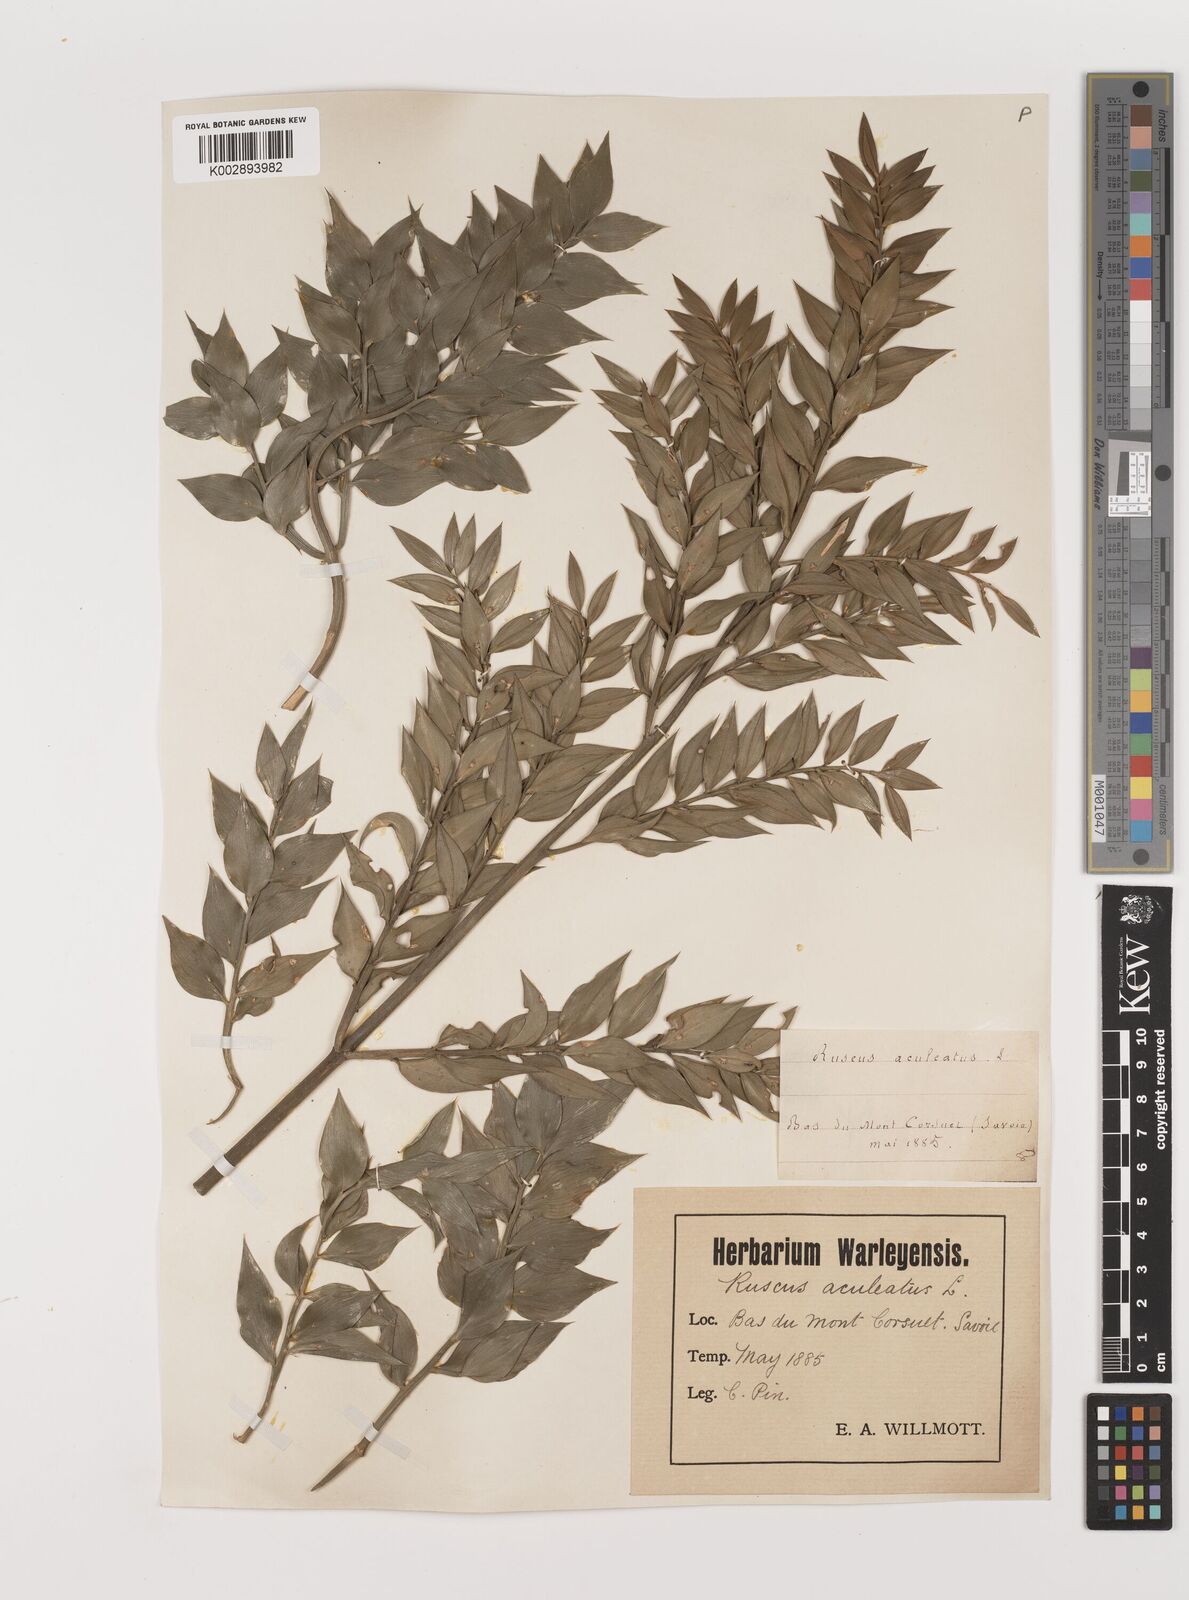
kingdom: Plantae
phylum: Tracheophyta
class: Liliopsida
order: Asparagales
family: Asparagaceae
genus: Ruscus
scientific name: Ruscus aculeatus
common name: Butcher's-broom
